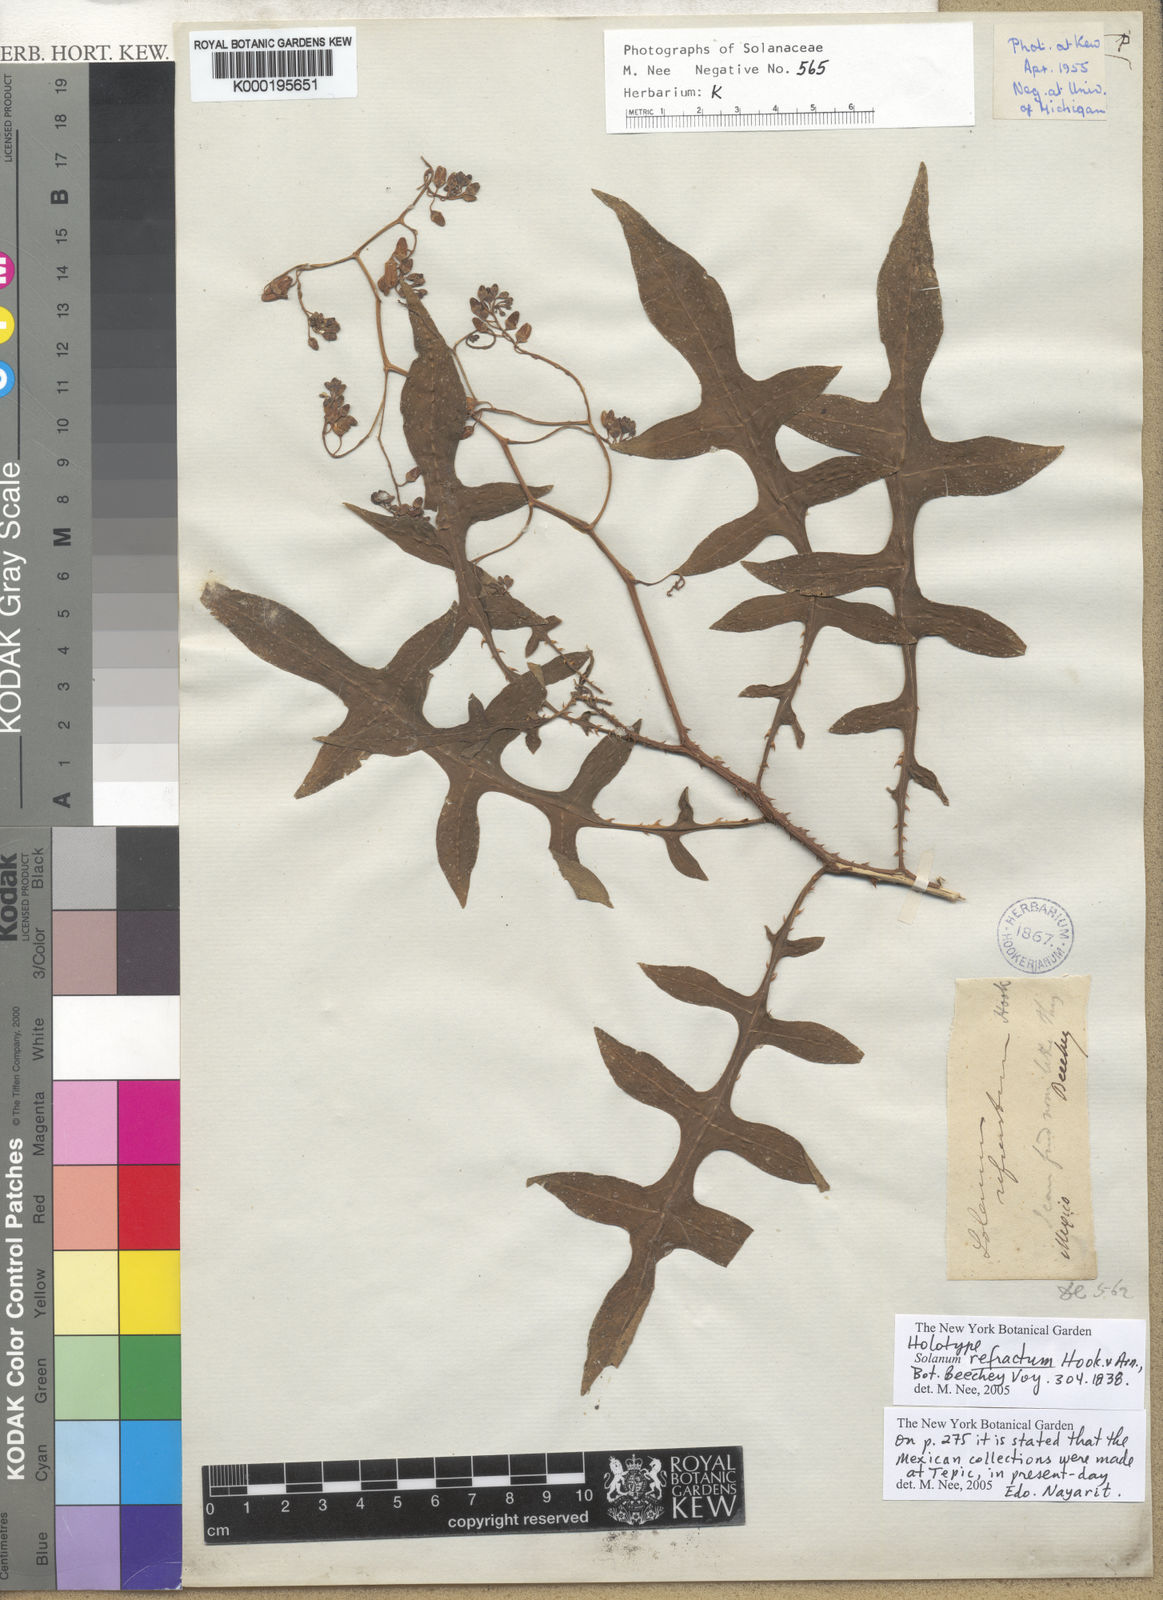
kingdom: Plantae
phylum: Tracheophyta
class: Magnoliopsida
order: Solanales
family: Solanaceae
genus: Solanum
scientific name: Solanum refractum
